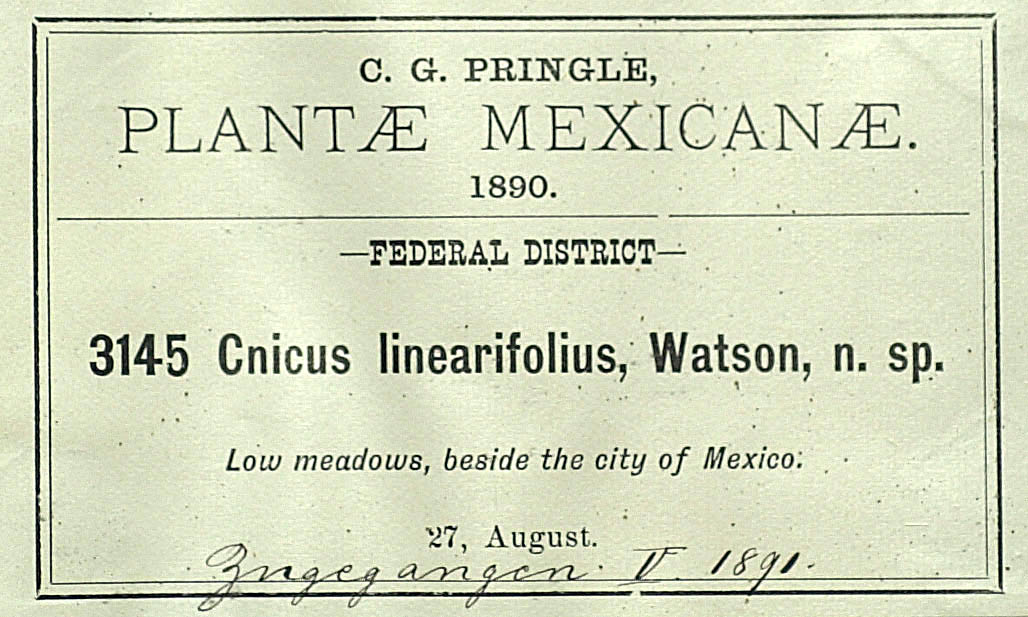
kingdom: Plantae
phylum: Tracheophyta
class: Magnoliopsida
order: Asterales
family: Asteraceae
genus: Cirsium
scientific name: Cirsium lomatolepis
